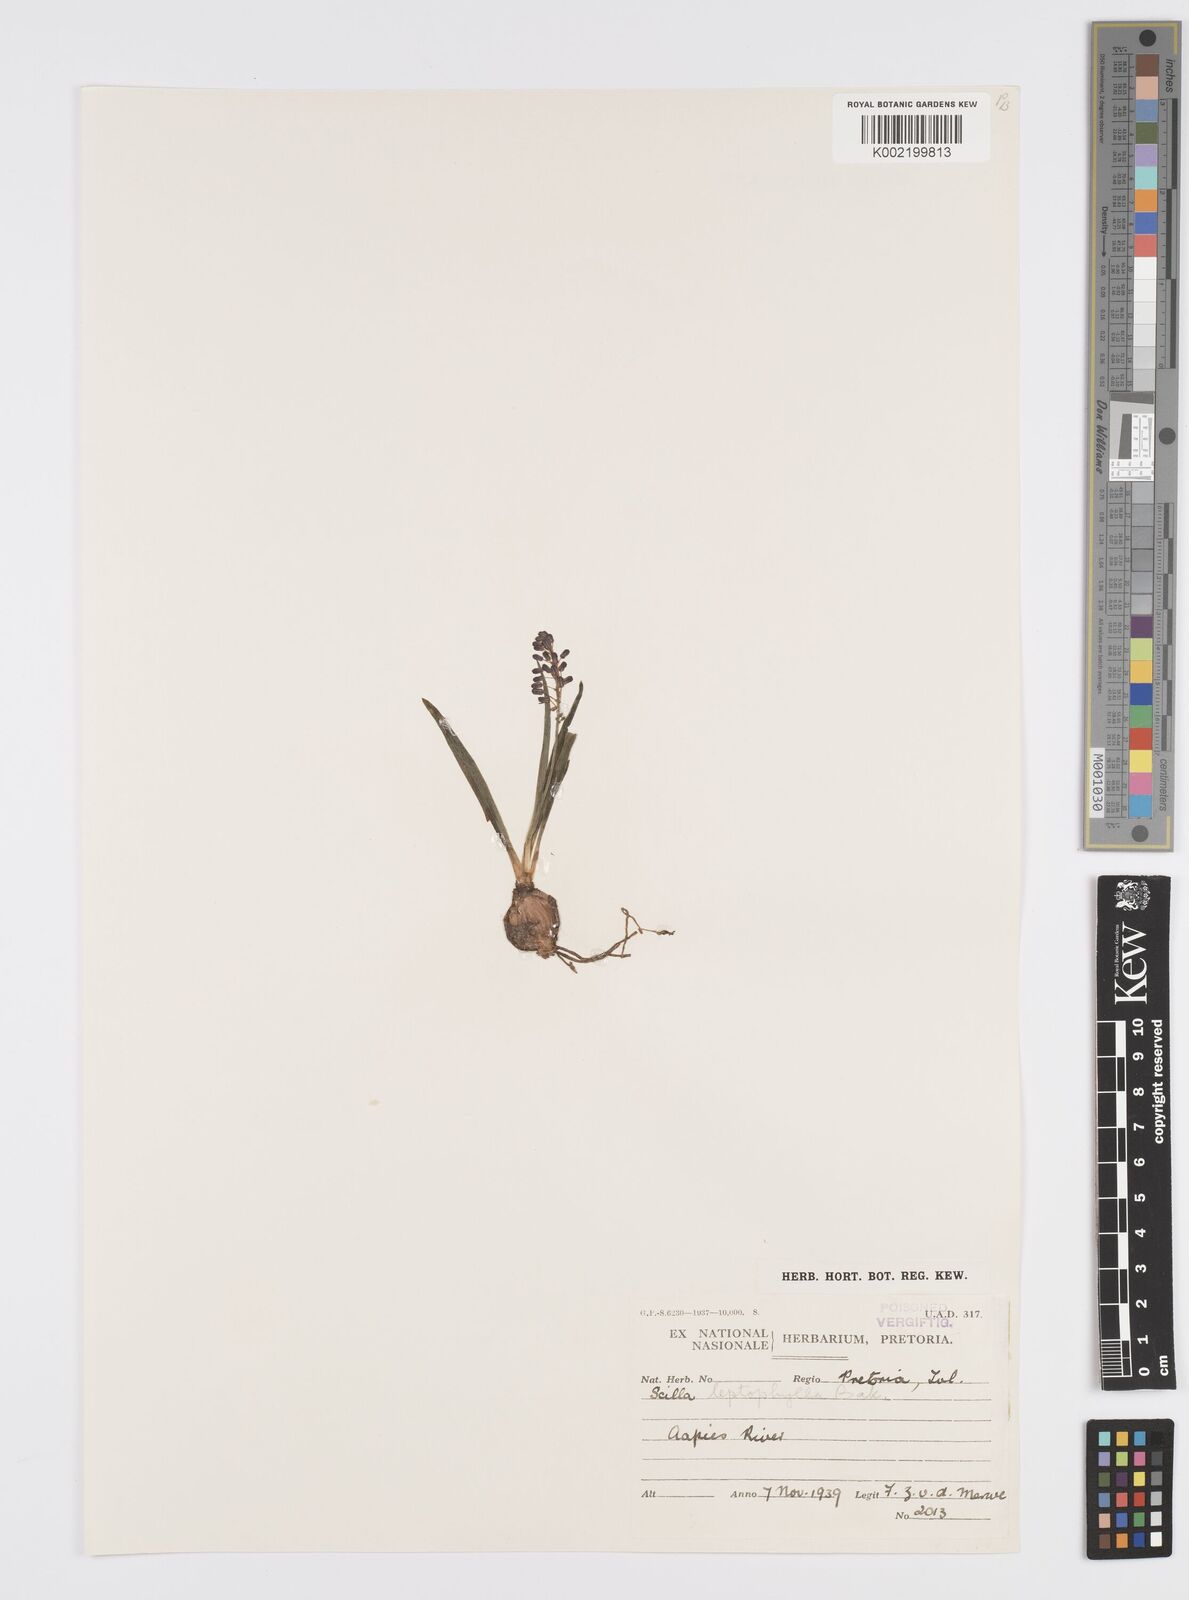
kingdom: Plantae
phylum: Tracheophyta
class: Liliopsida
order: Asparagales
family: Asparagaceae
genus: Ledebouria
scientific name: Ledebouria cooperi
